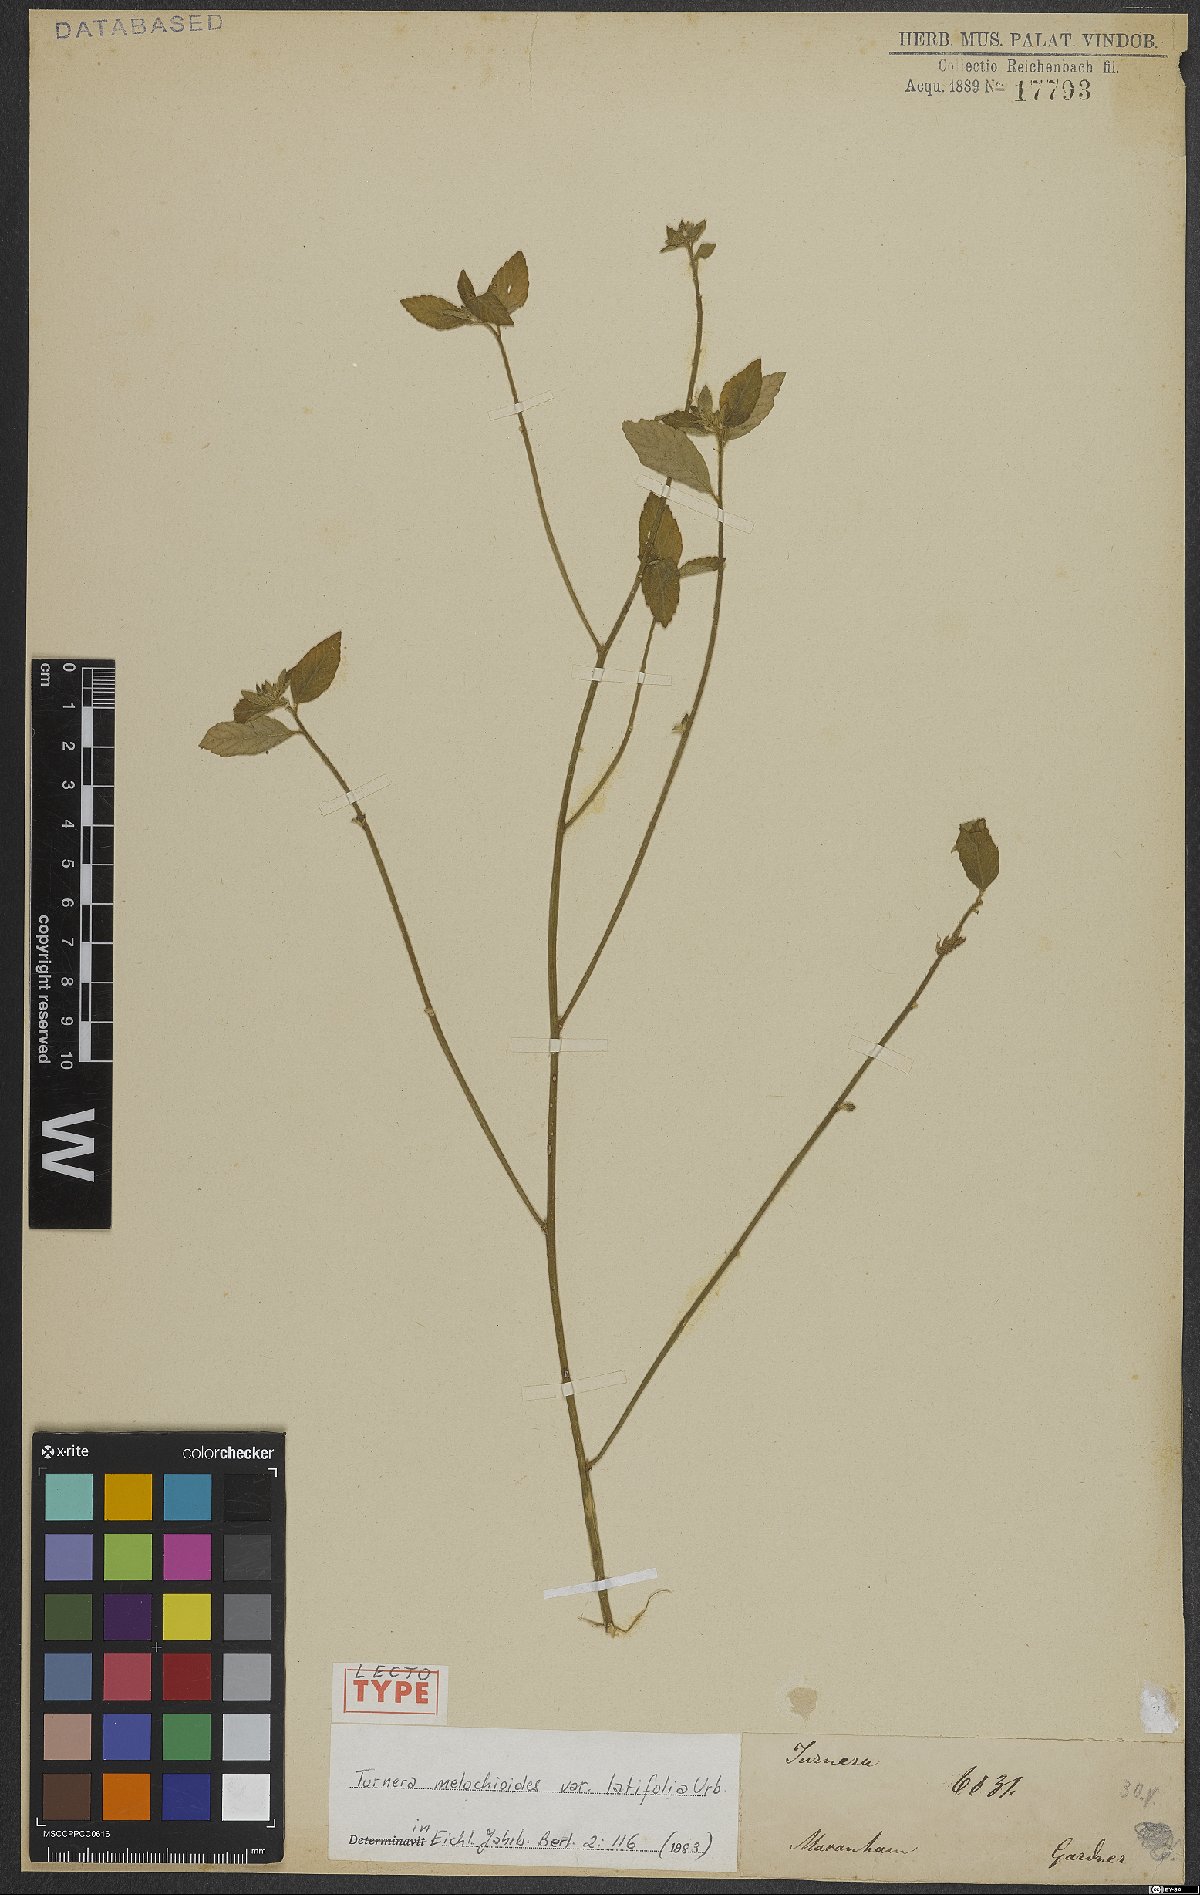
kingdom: Plantae
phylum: Tracheophyta
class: Magnoliopsida
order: Malpighiales
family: Turneraceae
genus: Turnera
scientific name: Turnera melochioides
